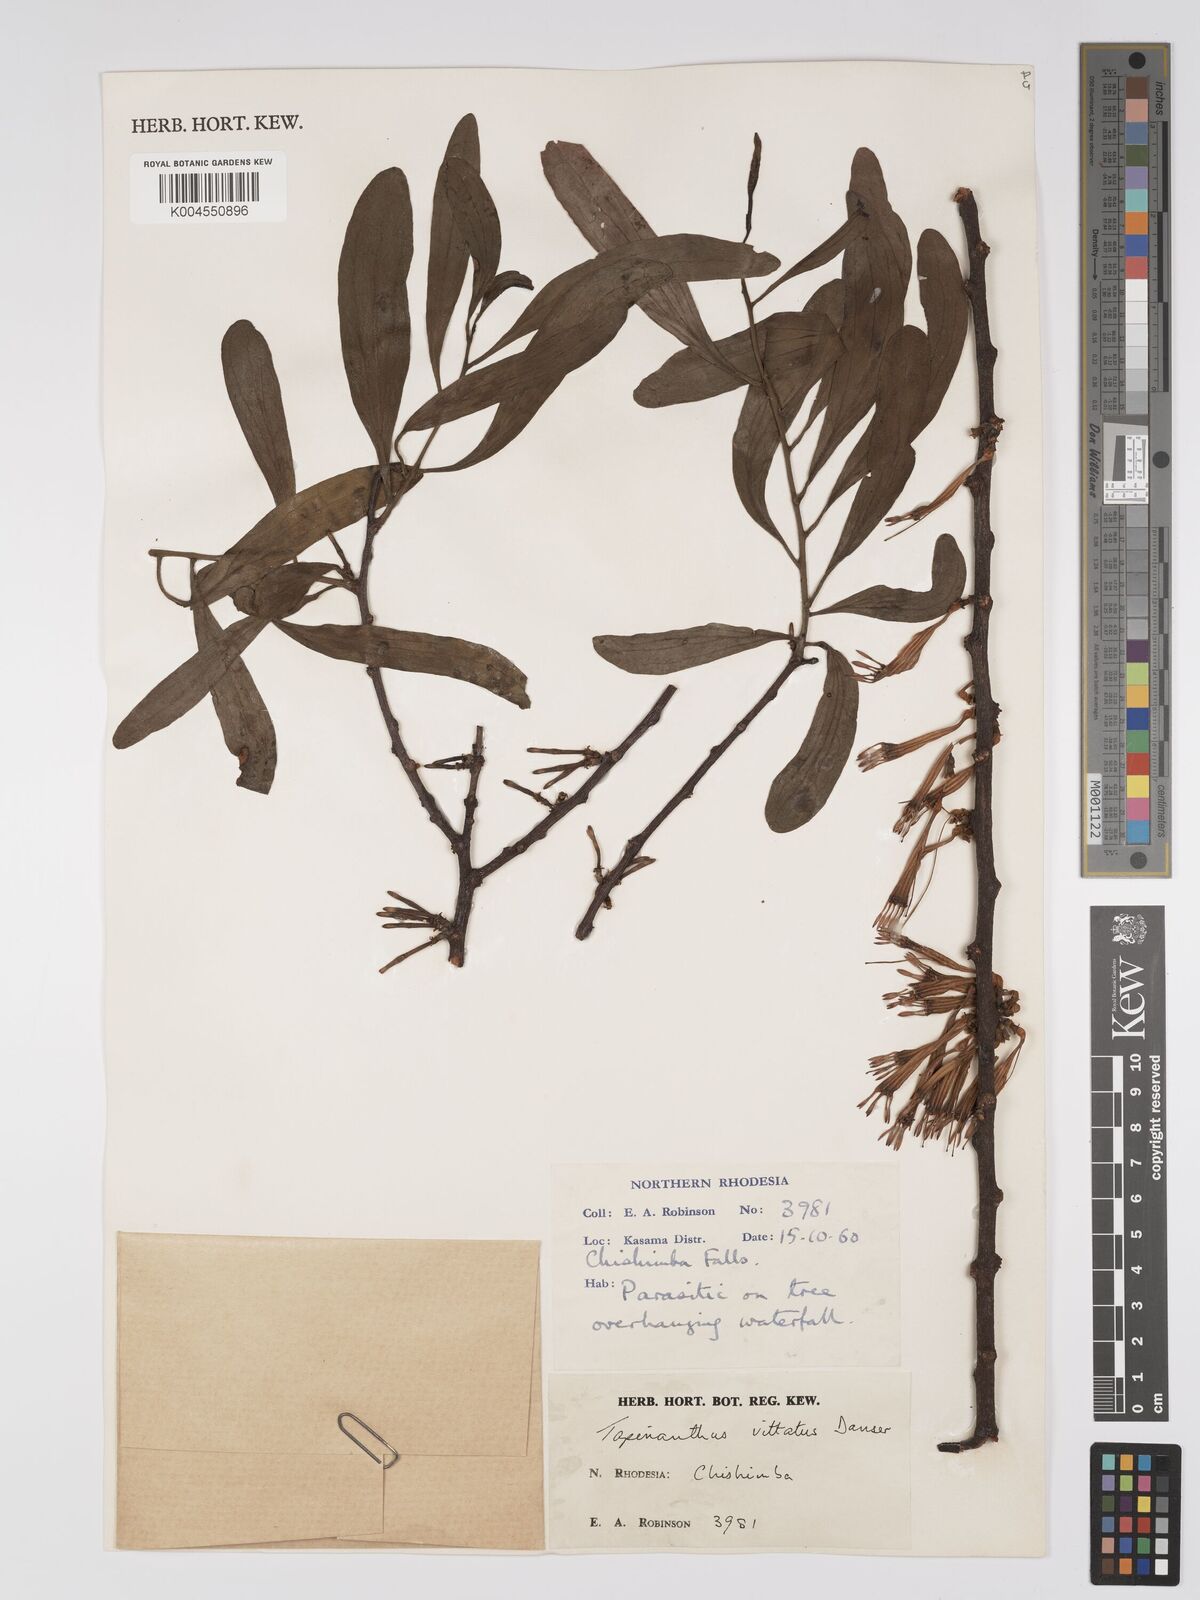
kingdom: Plantae
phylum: Tracheophyta
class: Magnoliopsida
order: Santalales
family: Loranthaceae
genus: Agelanthus
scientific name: Agelanthus zizyphifolius
